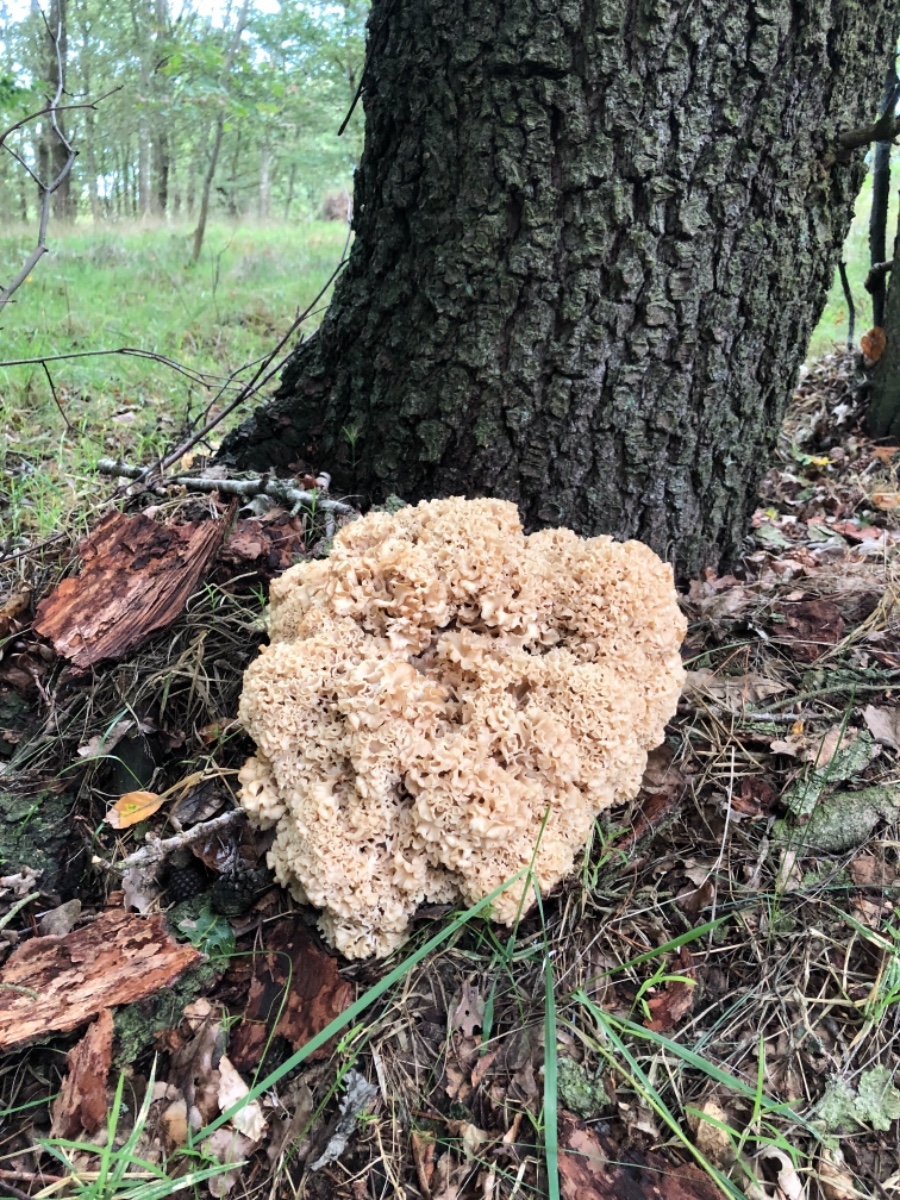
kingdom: Fungi
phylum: Basidiomycota
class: Agaricomycetes
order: Polyporales
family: Sparassidaceae
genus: Sparassis
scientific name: Sparassis crispa
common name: kruset blomkålssvamp
